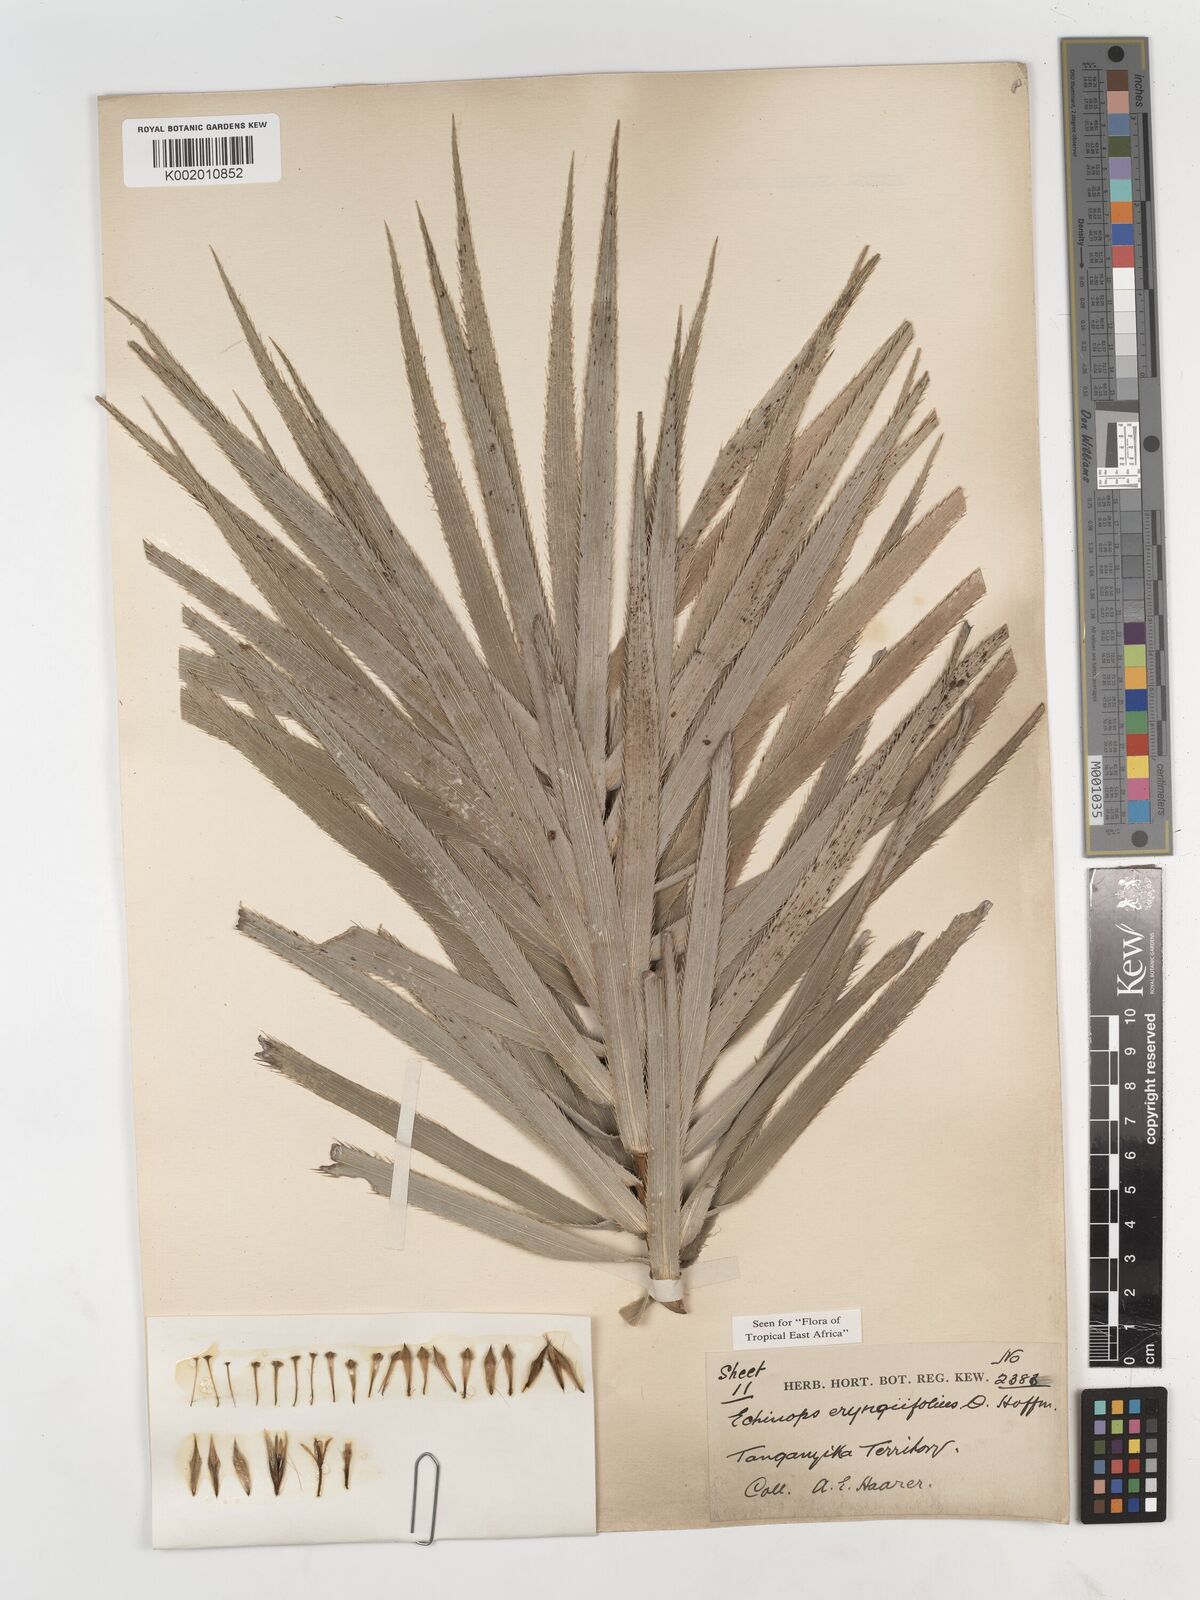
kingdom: Plantae
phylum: Tracheophyta
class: Magnoliopsida
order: Asterales
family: Asteraceae
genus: Echinops
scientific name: Echinops eryngiifolius
